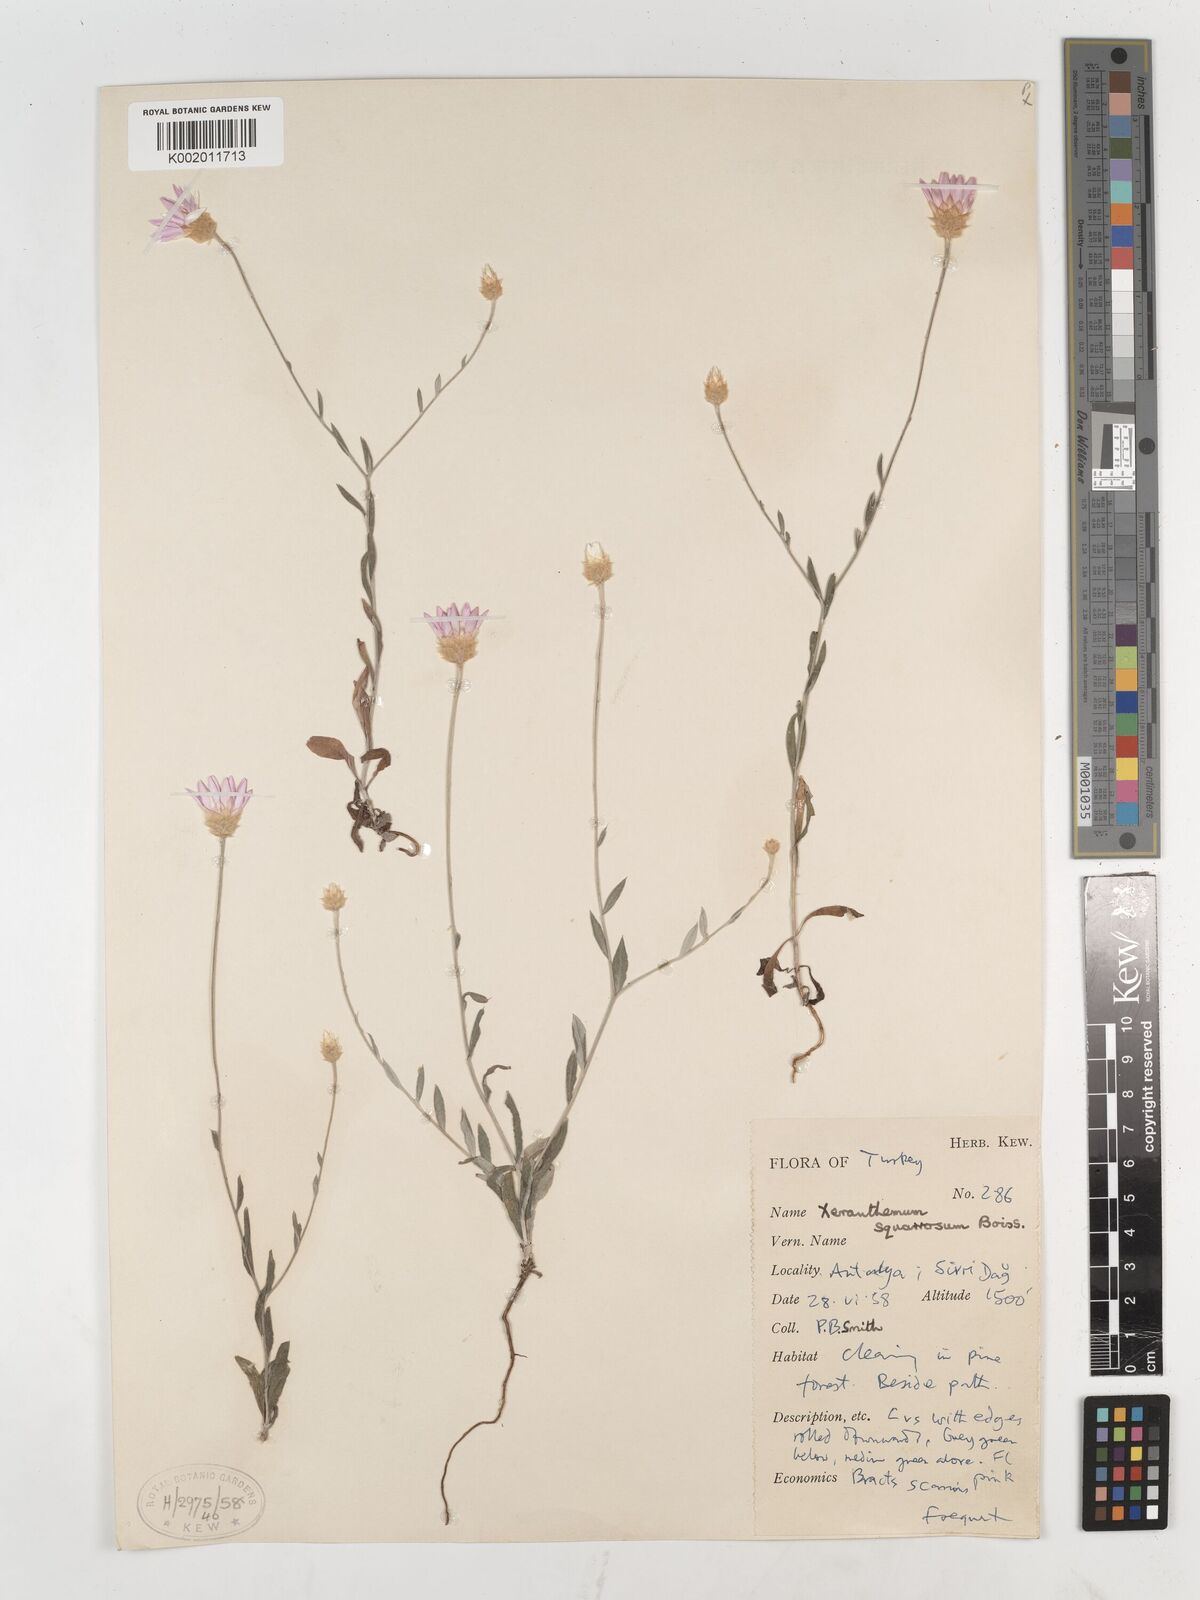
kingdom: Plantae
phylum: Tracheophyta
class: Magnoliopsida
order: Asterales
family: Asteraceae
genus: Xeranthemum
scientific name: Xeranthemum squarrosum
